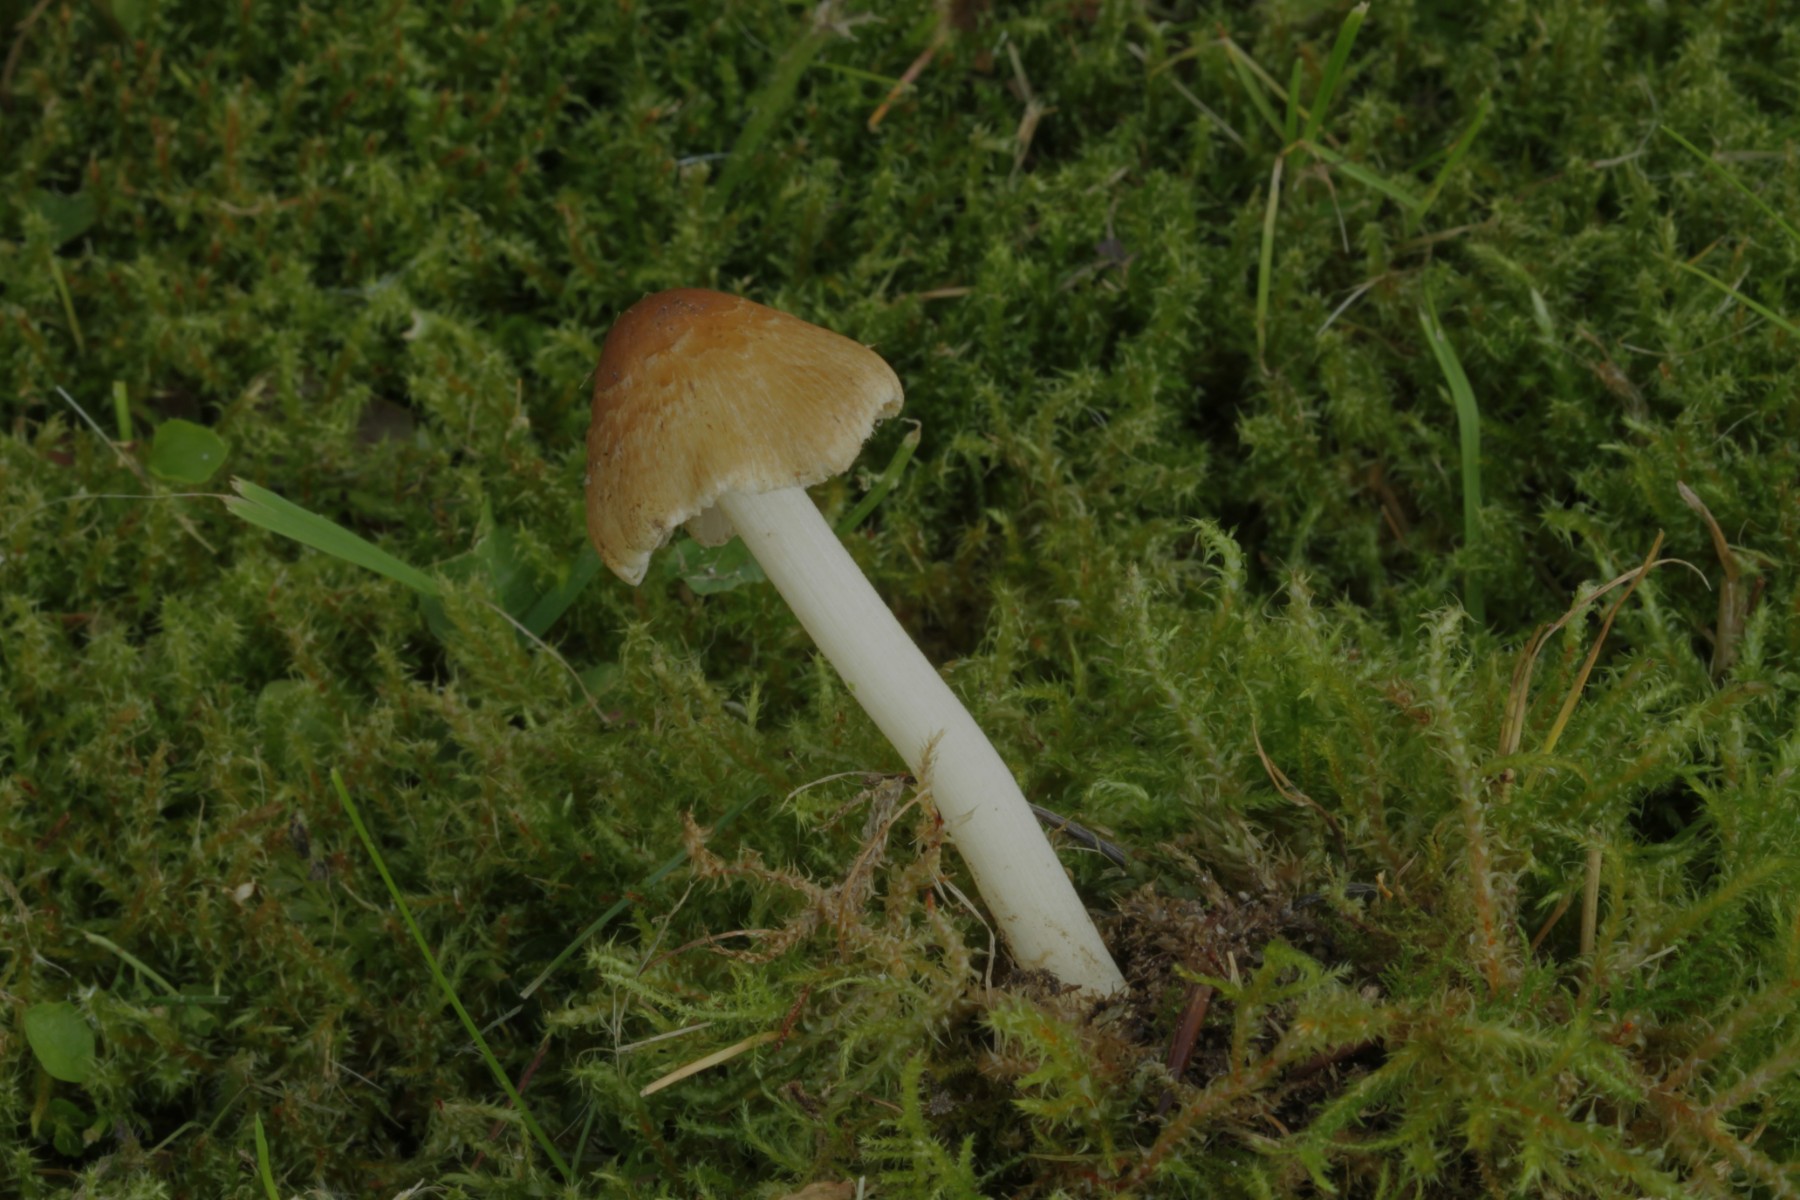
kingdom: Fungi
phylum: Basidiomycota
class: Agaricomycetes
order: Agaricales
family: Inocybaceae
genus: Pseudosperma
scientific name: Pseudosperma
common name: trævlhat
